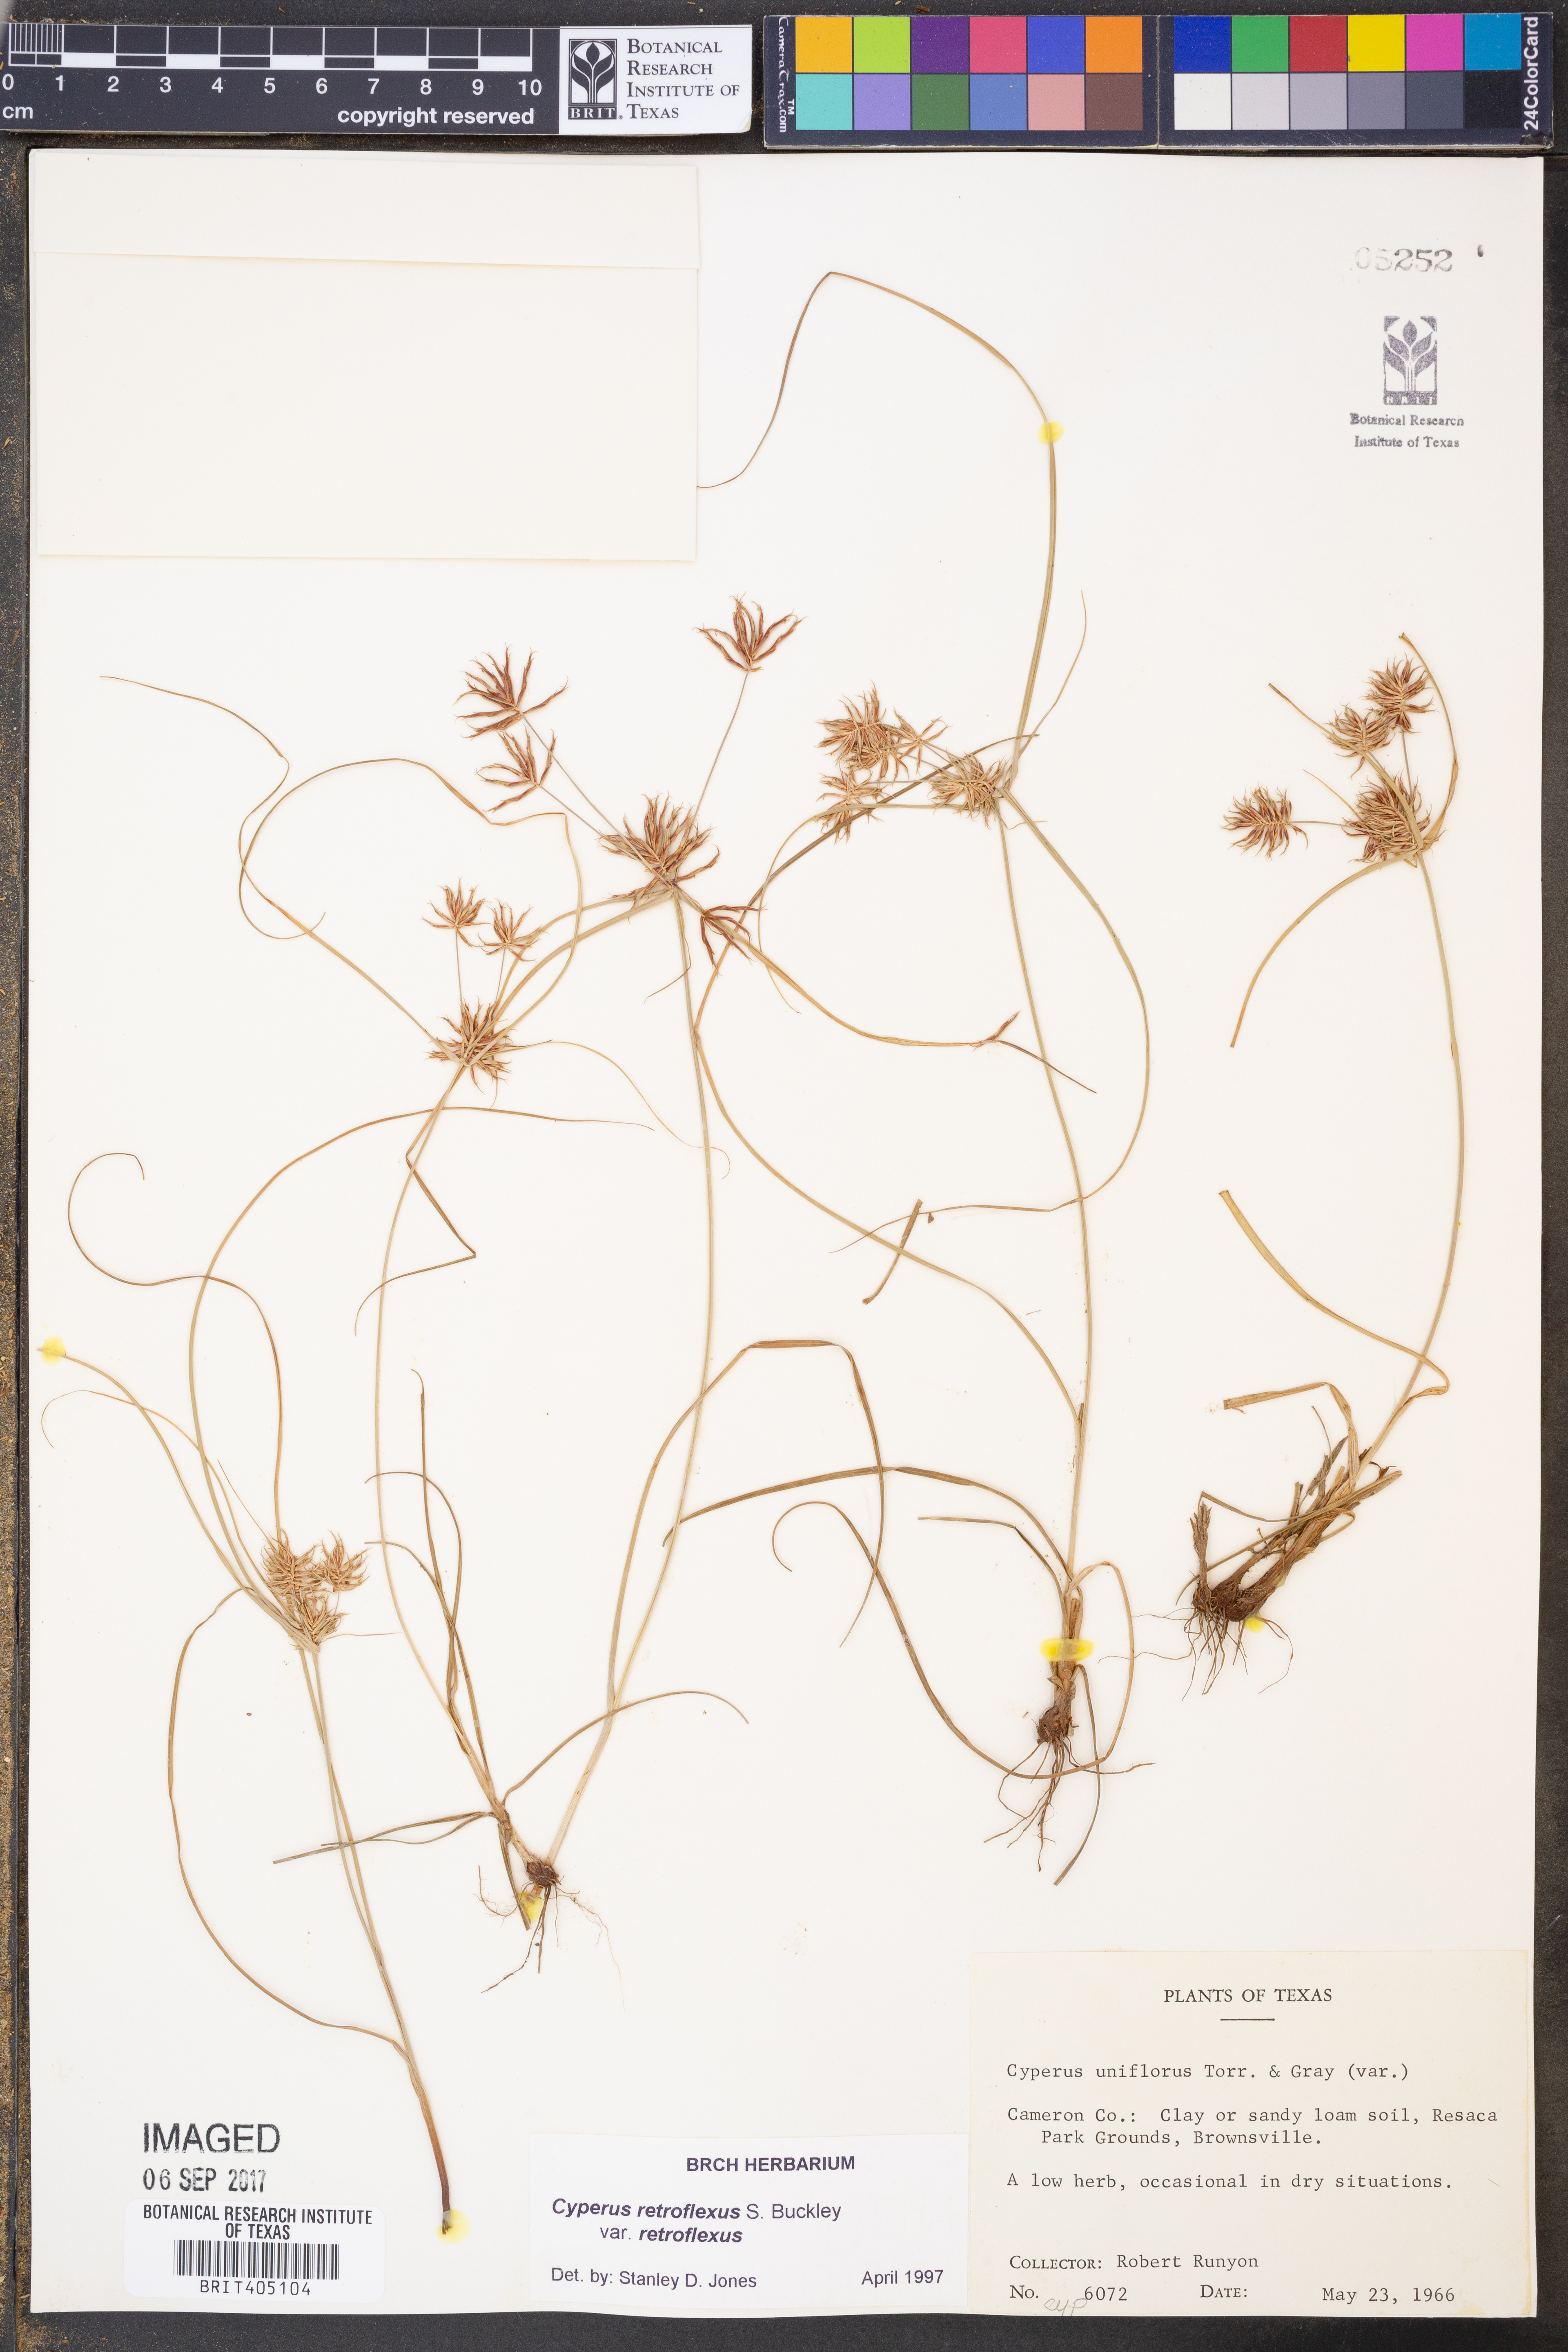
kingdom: Plantae
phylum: Tracheophyta
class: Liliopsida
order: Poales
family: Cyperaceae
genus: Cyperus
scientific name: Cyperus retroflexus
